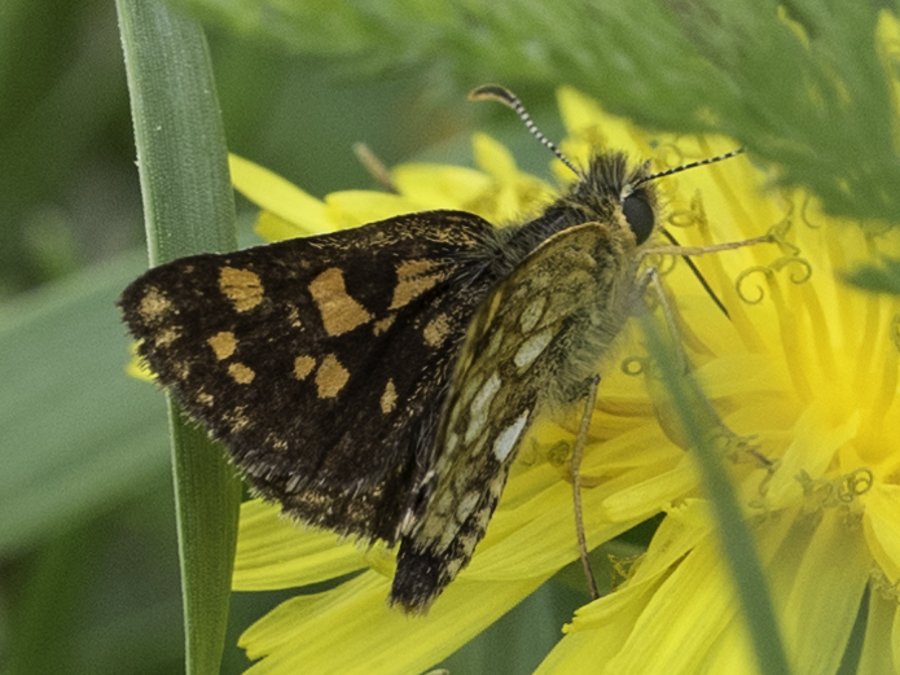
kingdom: Animalia
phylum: Arthropoda
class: Insecta
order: Lepidoptera
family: Hesperiidae
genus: Carterocephalus
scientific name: Carterocephalus palaemon
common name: Chequered Skipper
